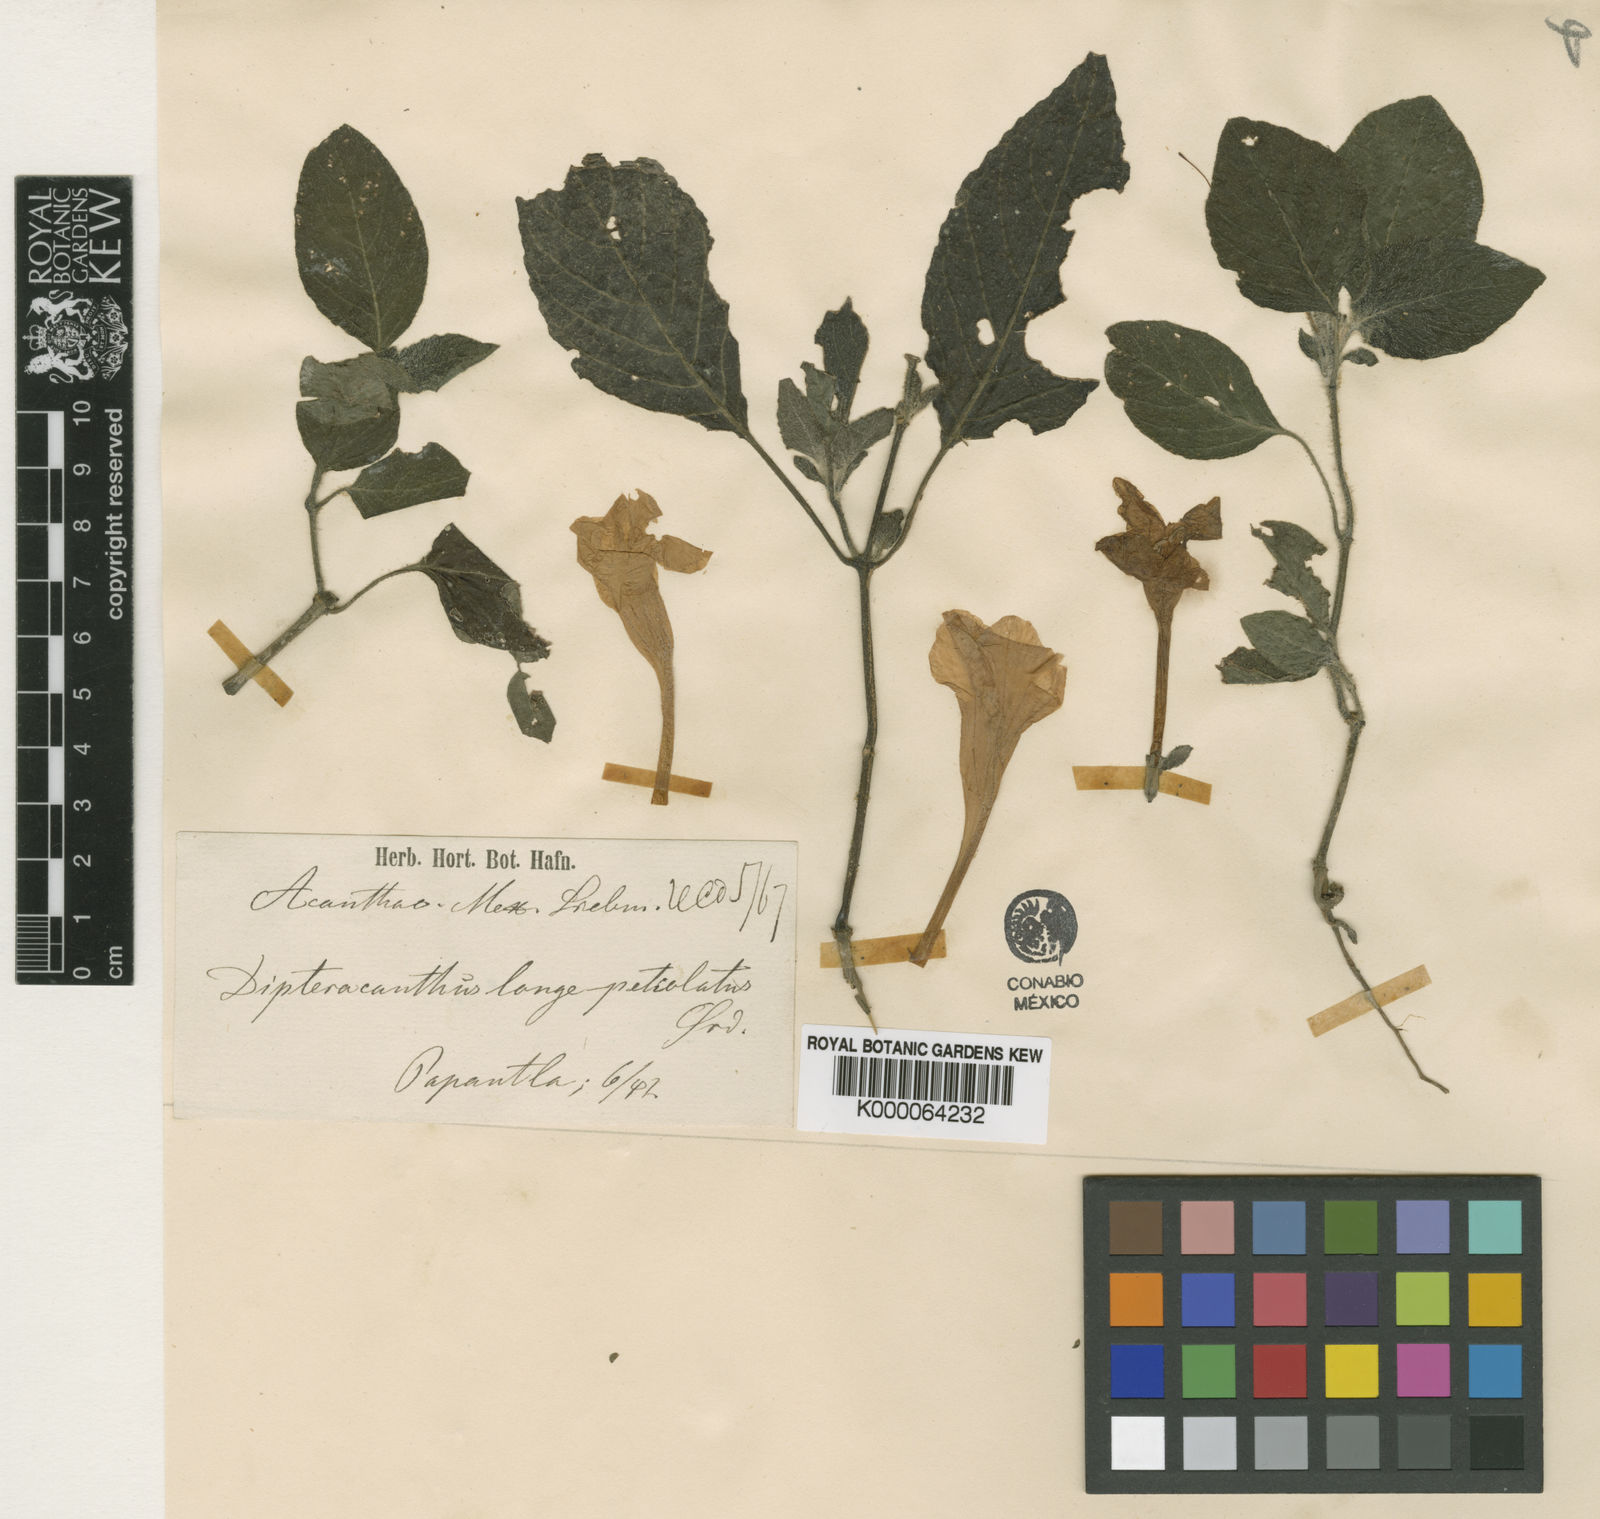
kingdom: Plantae
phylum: Tracheophyta
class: Magnoliopsida
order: Lamiales
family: Acanthaceae
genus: Ruellia
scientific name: Ruellia longepetiolata
